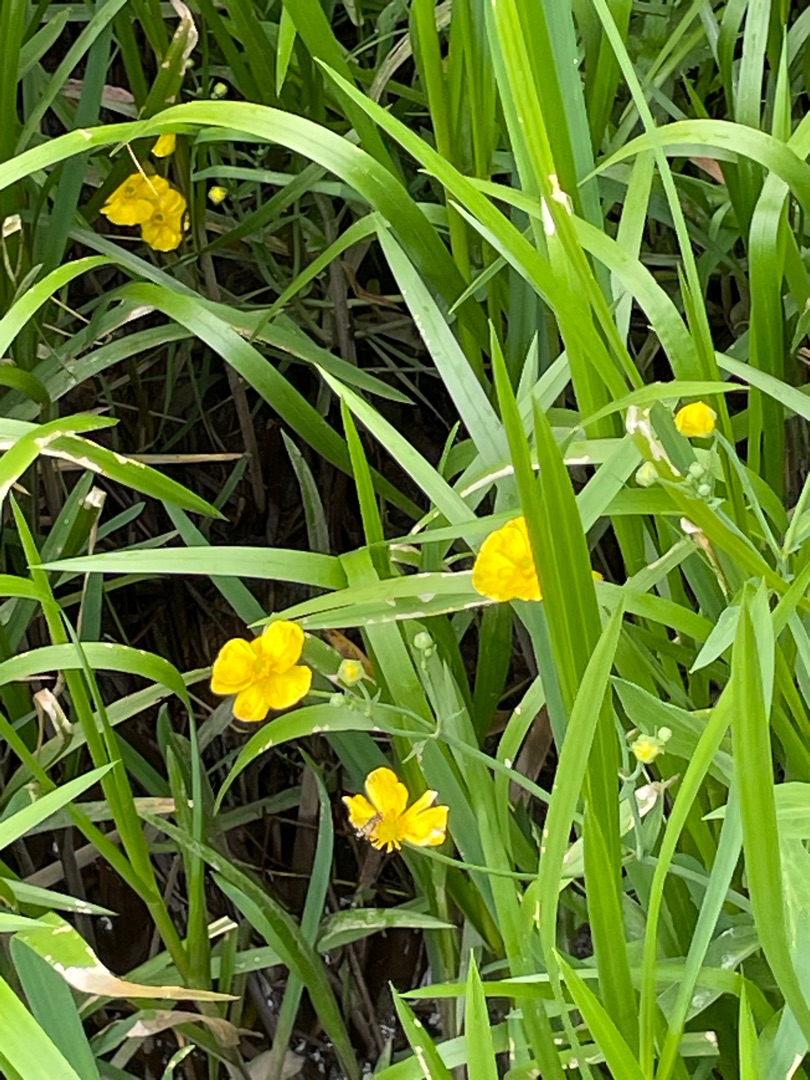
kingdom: Plantae
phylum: Tracheophyta
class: Magnoliopsida
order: Ranunculales
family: Ranunculaceae
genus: Ranunculus
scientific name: Ranunculus lingua
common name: Langbladet ranunkel
